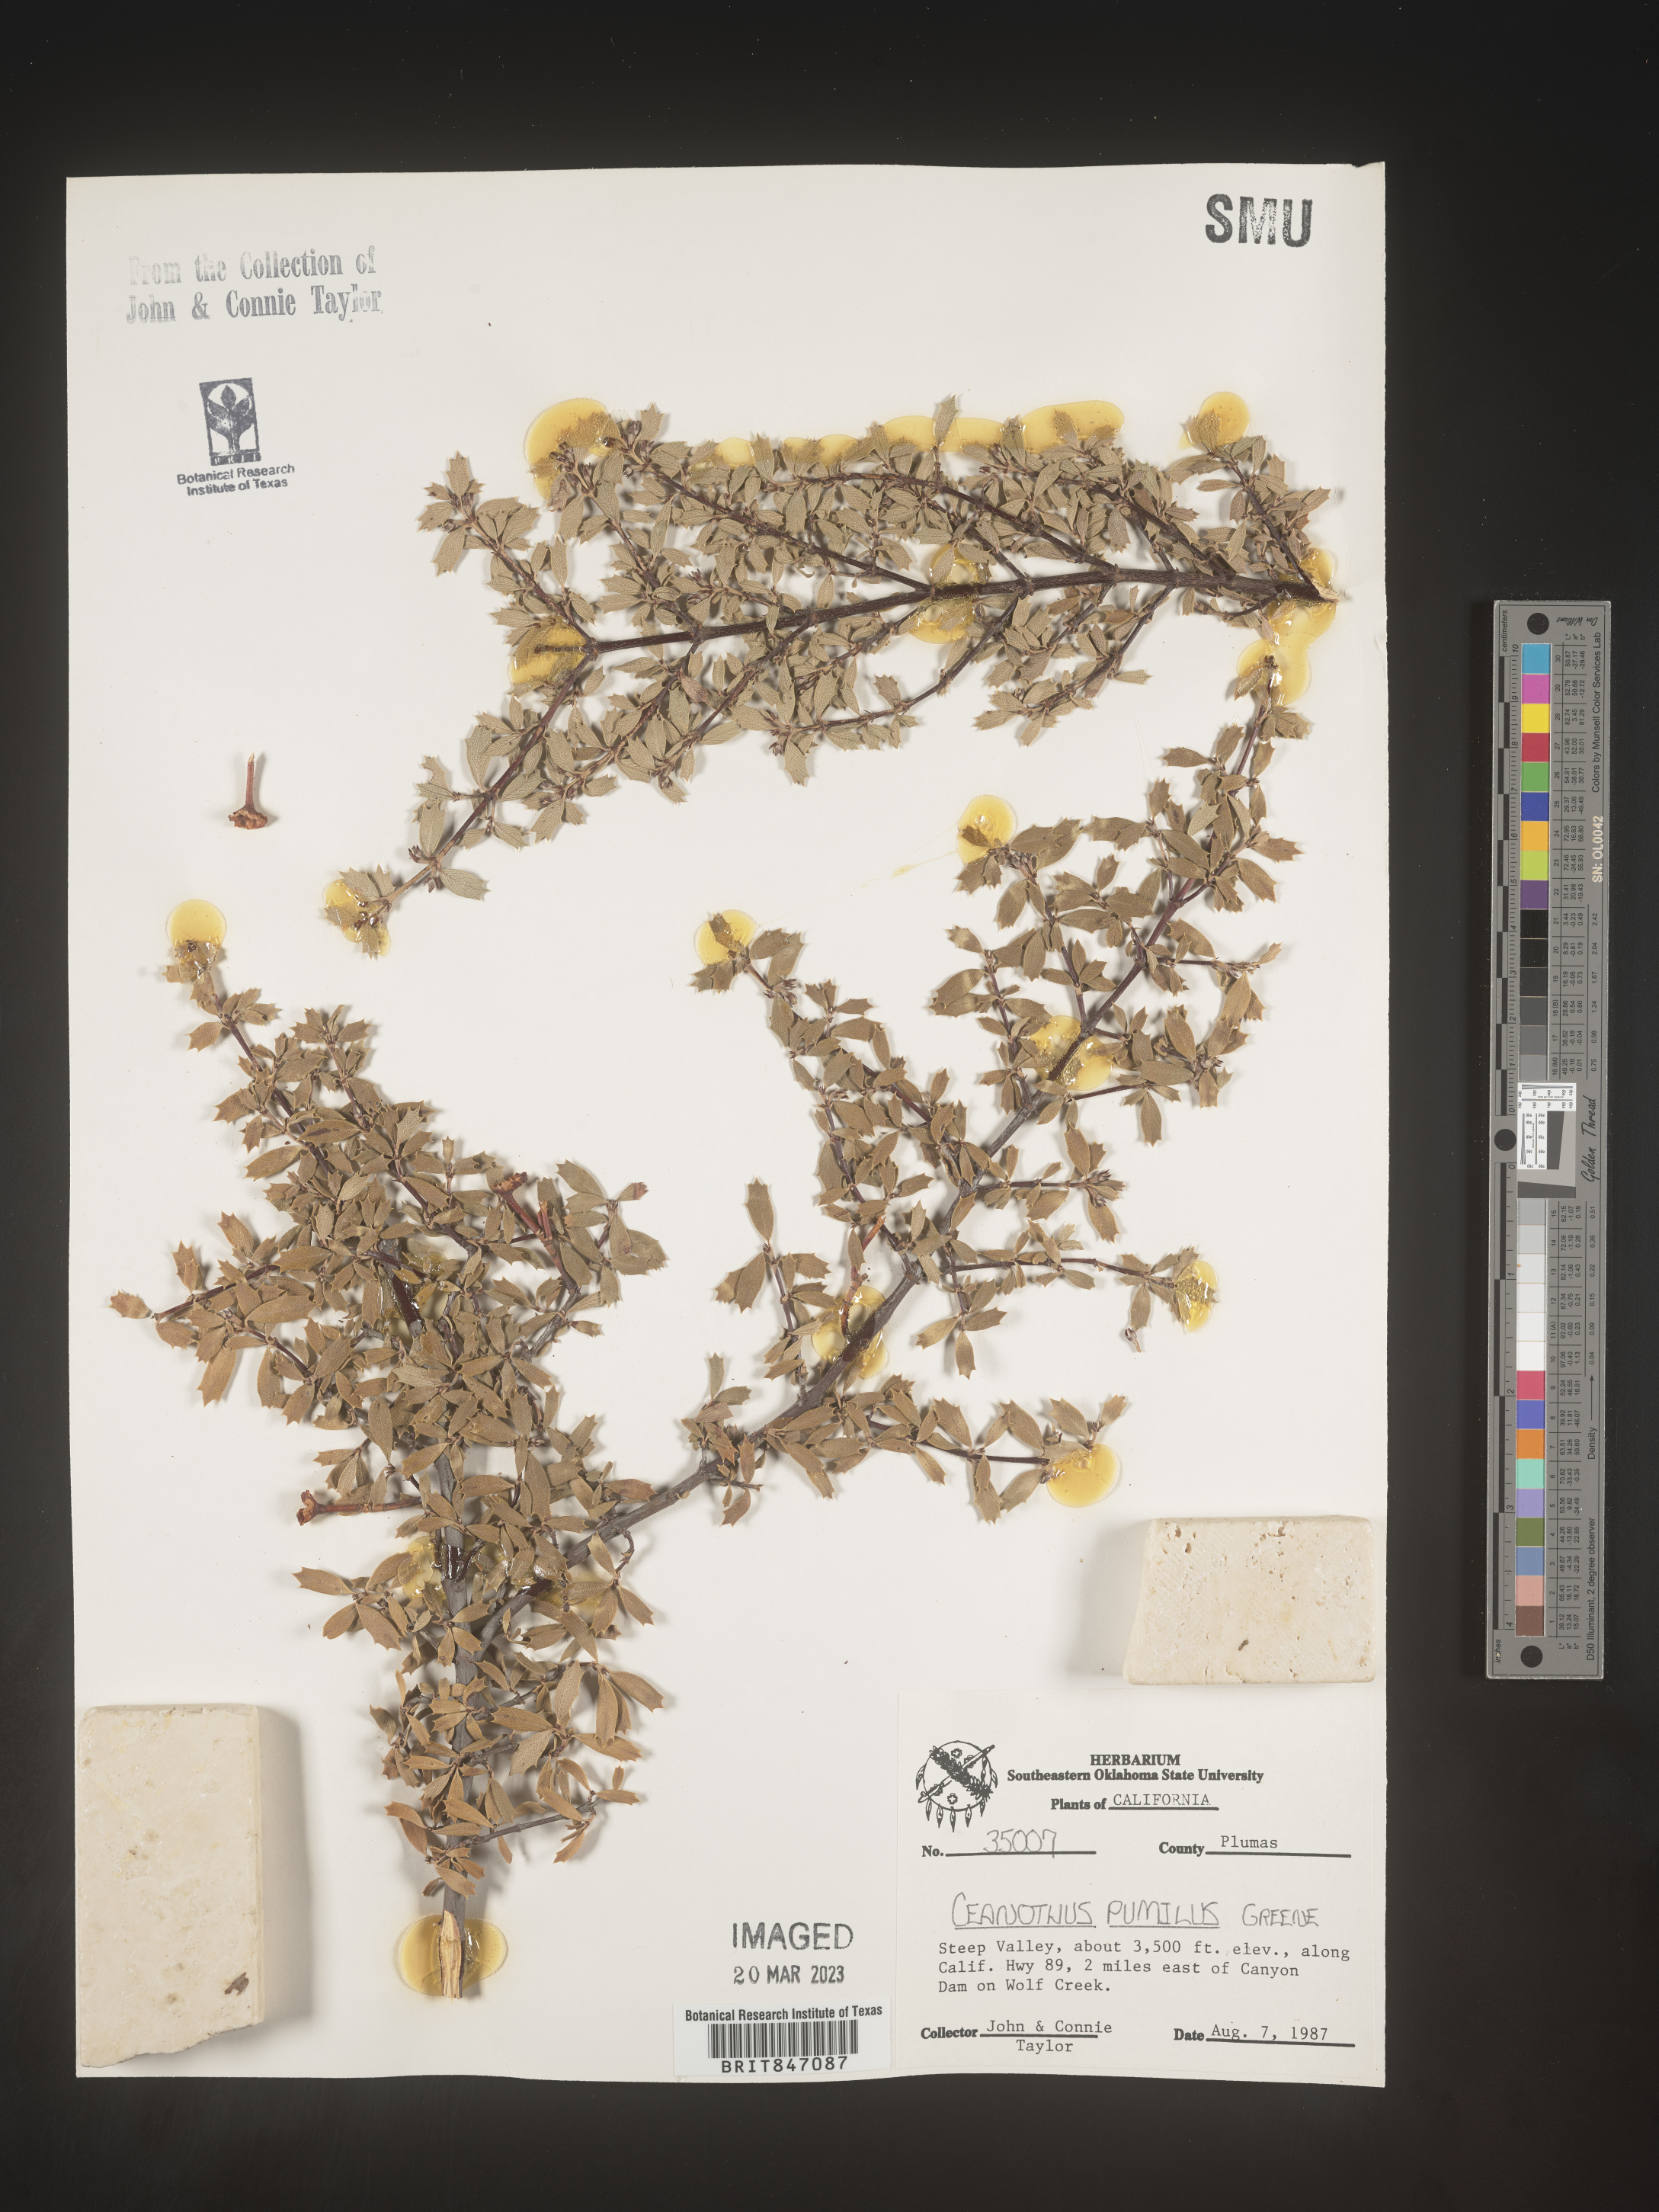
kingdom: Plantae
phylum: Tracheophyta
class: Magnoliopsida
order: Rosales
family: Rhamnaceae
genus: Ceanothus
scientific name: Ceanothus
